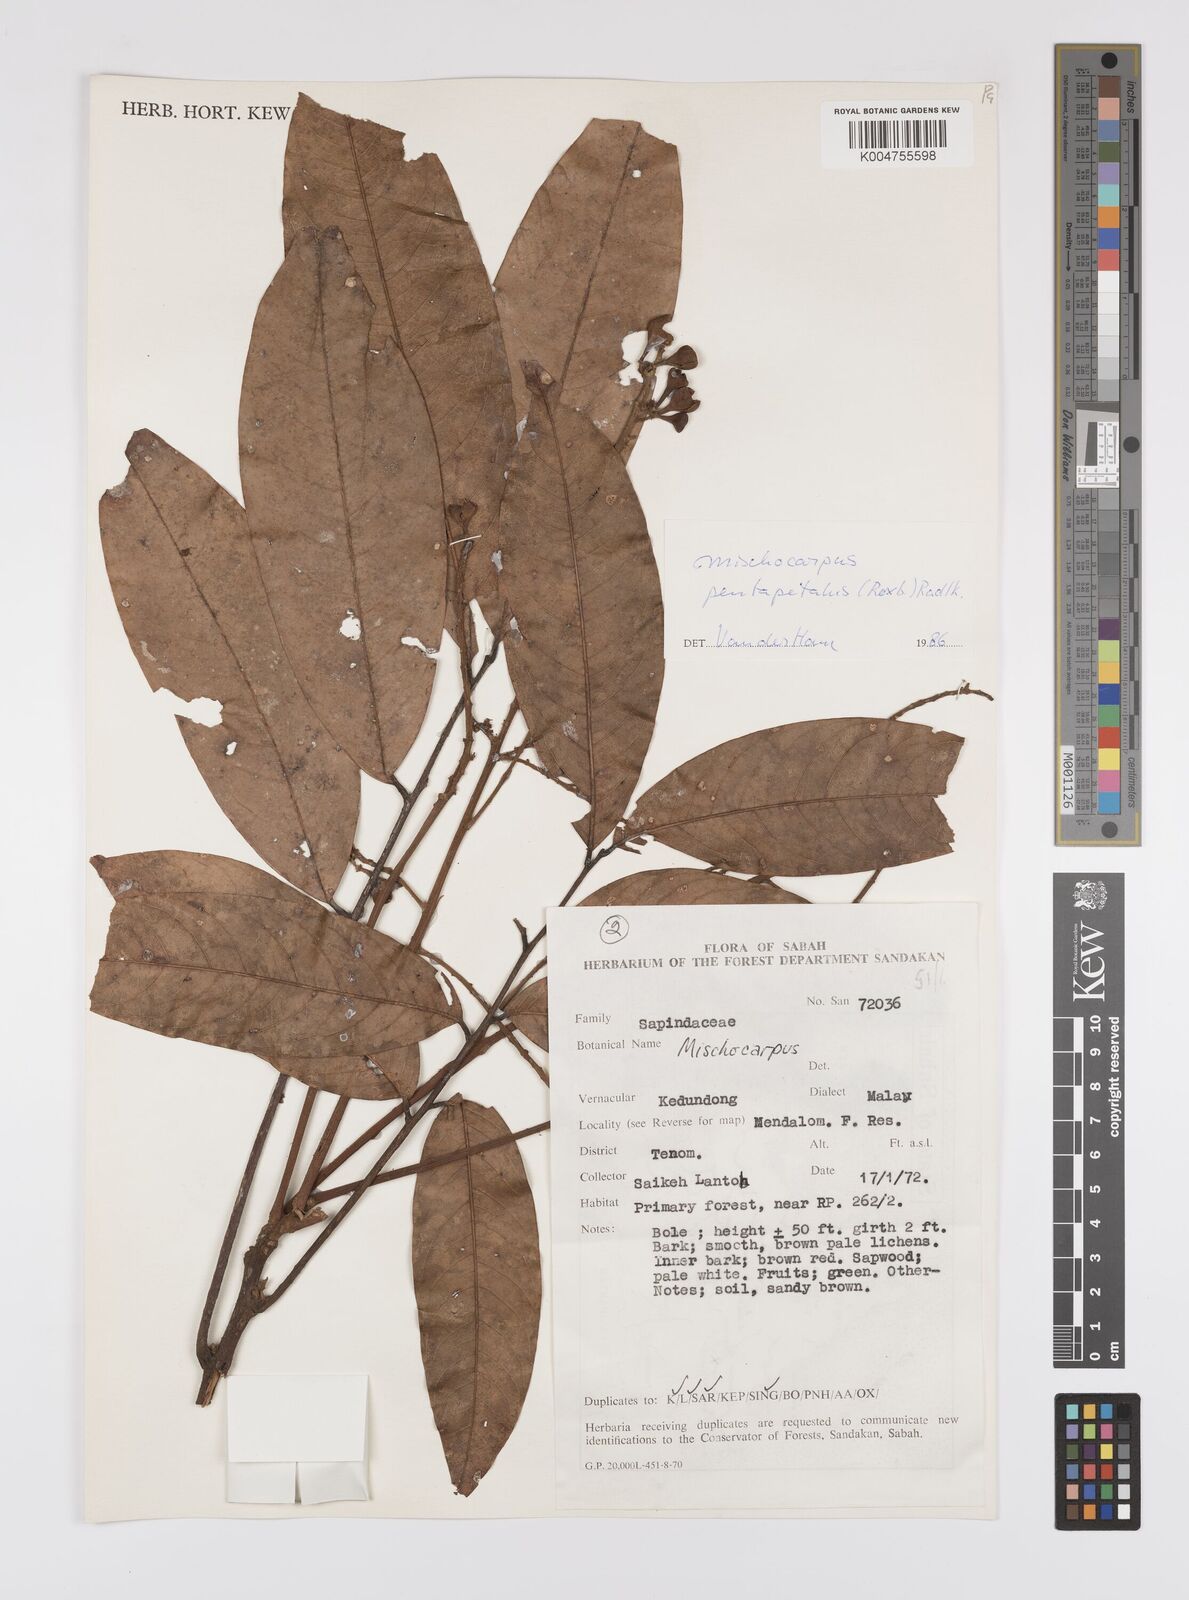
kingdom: Plantae
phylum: Tracheophyta
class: Magnoliopsida
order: Sapindales
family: Sapindaceae
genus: Mischocarpus
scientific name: Mischocarpus pentapetalus
